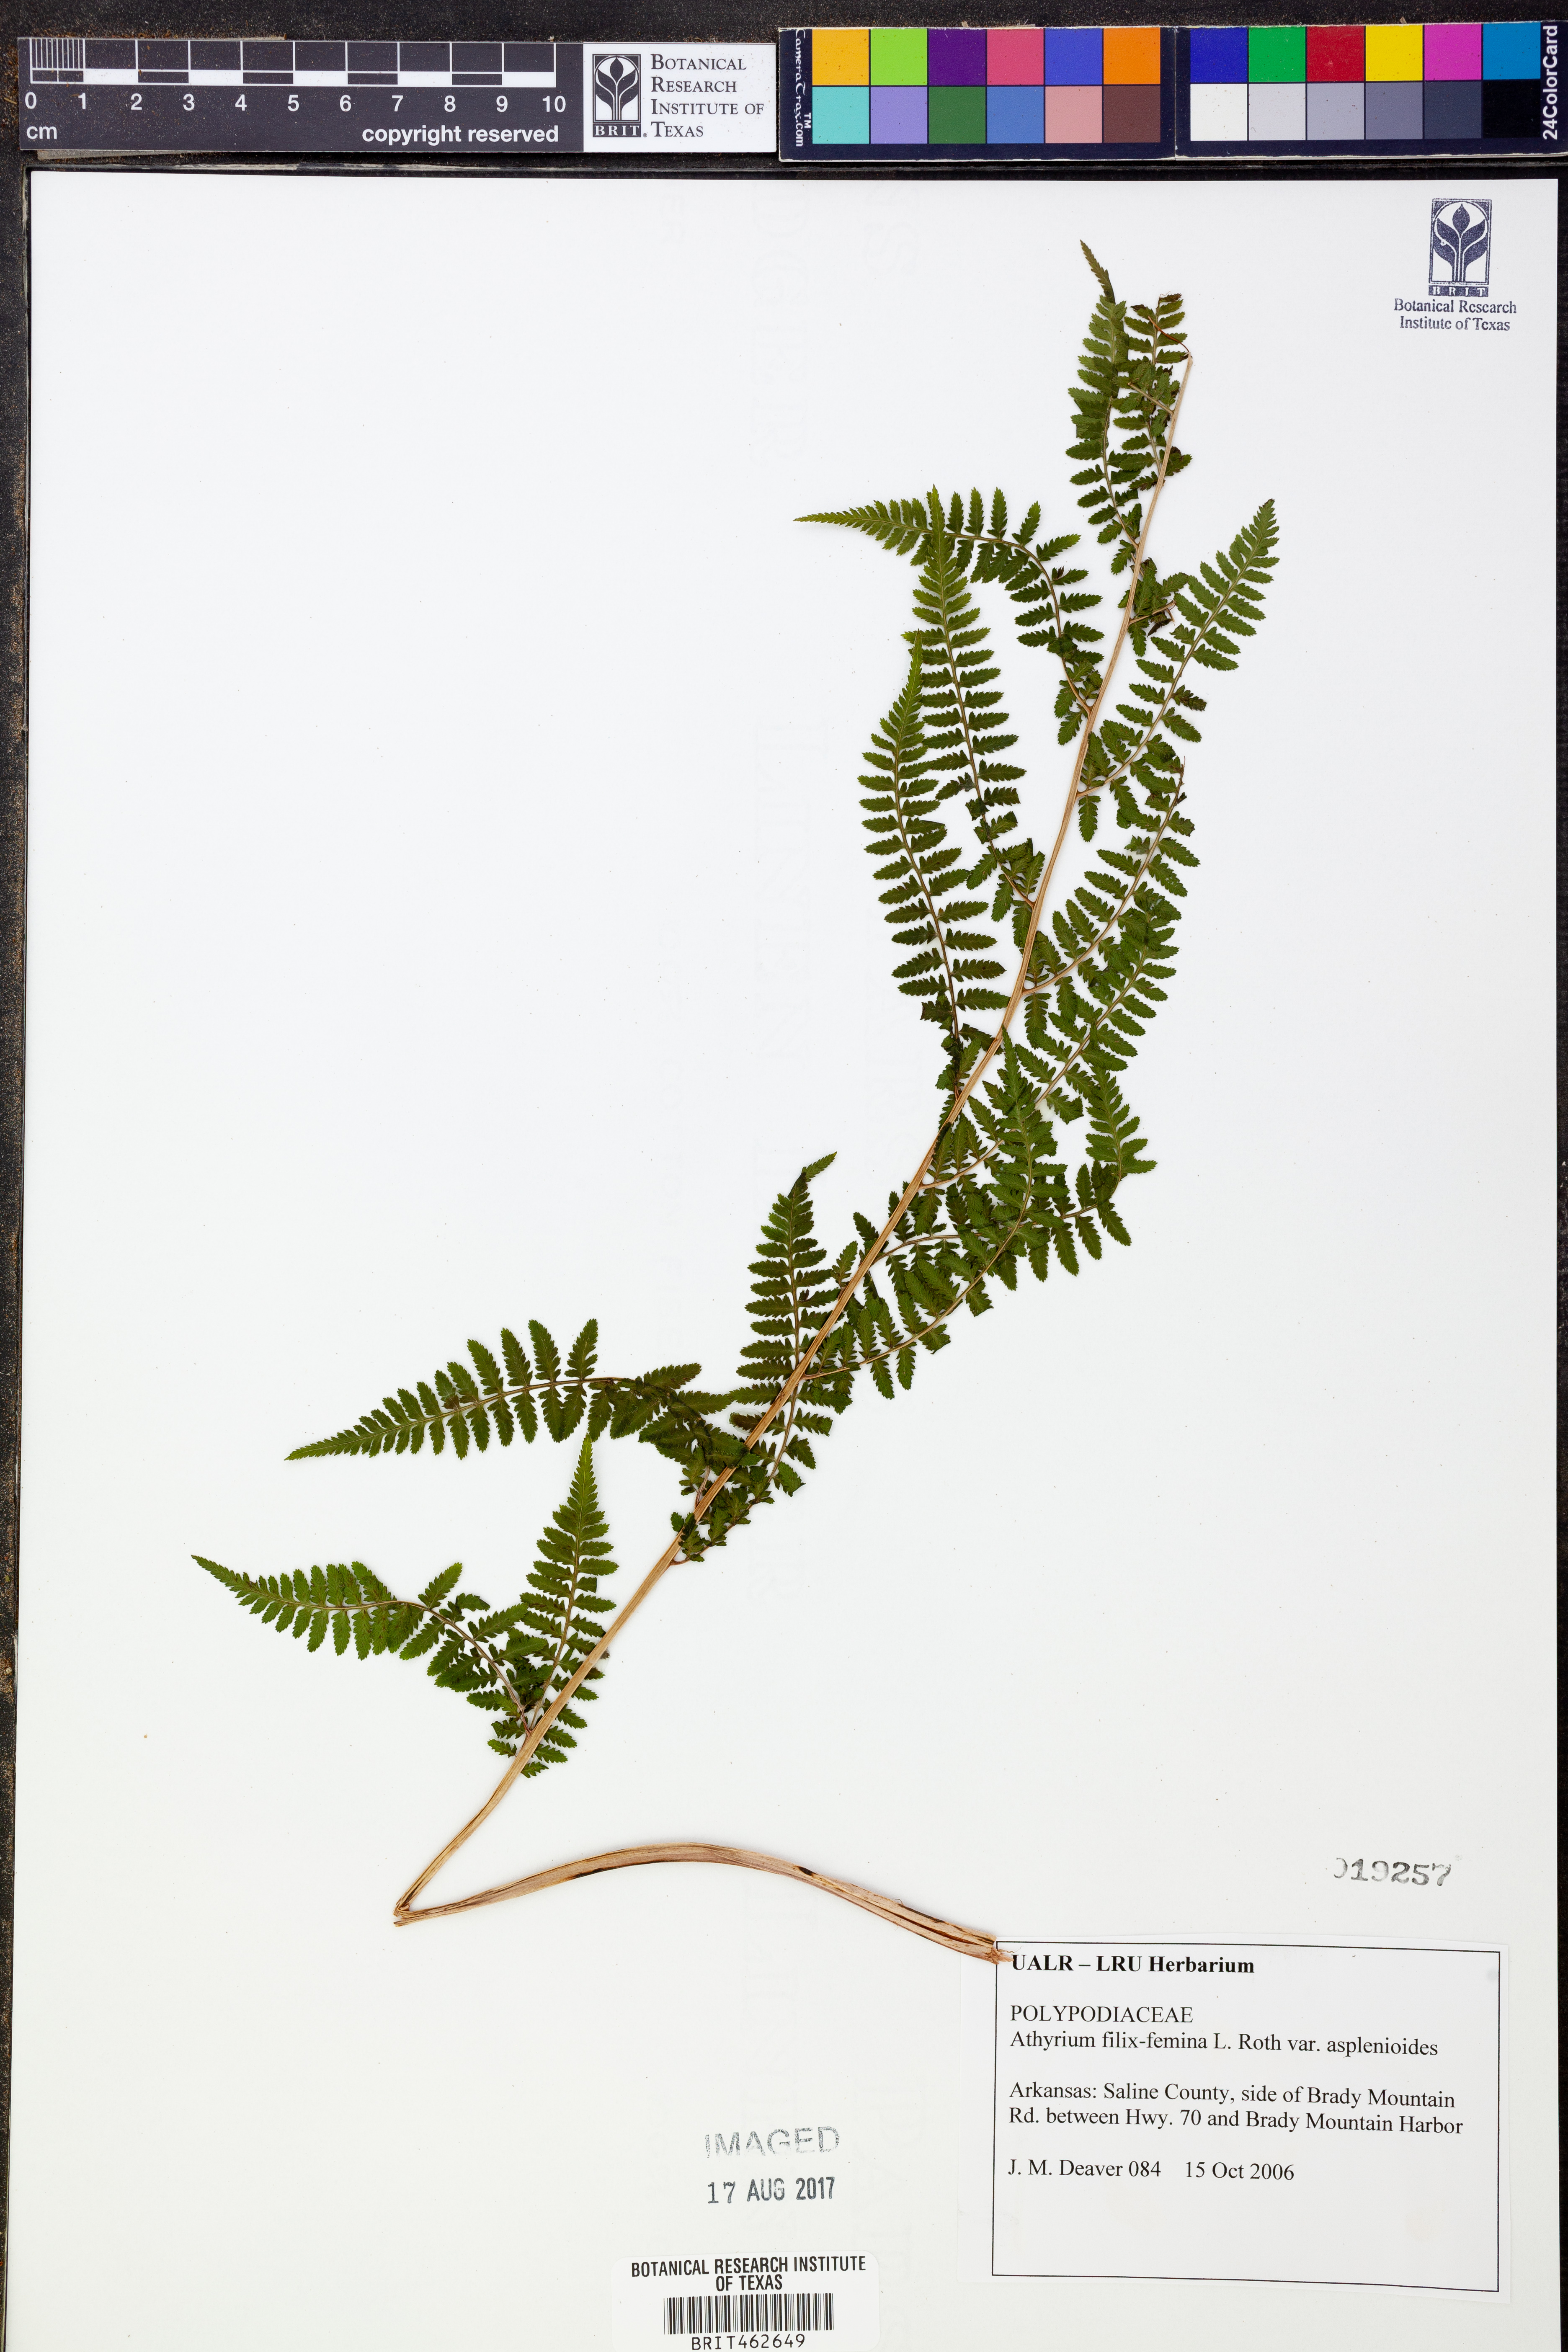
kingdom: Plantae
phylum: Tracheophyta
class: Polypodiopsida
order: Polypodiales
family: Athyriaceae
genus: Athyrium
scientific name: Athyrium asplenioides
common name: Southern lady fern
